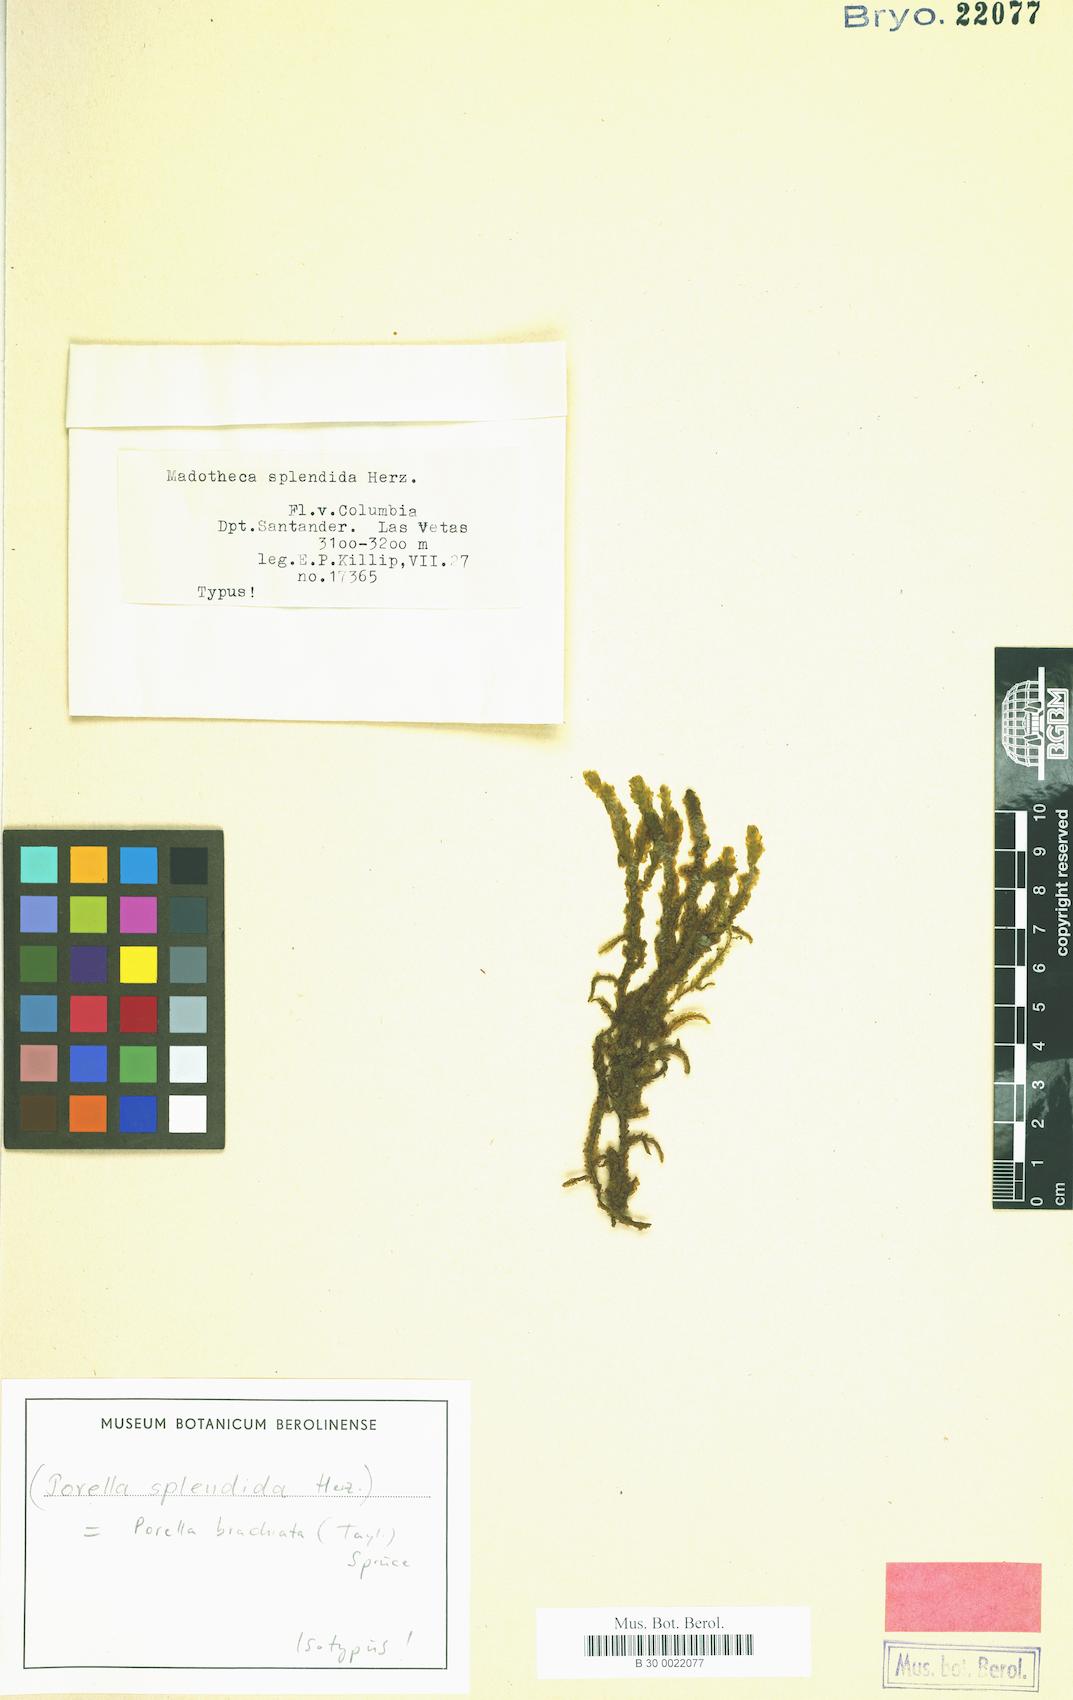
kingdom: Plantae
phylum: Marchantiophyta
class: Jungermanniopsida
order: Porellales
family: Porellaceae
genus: Porella
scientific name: Porella brachiata
